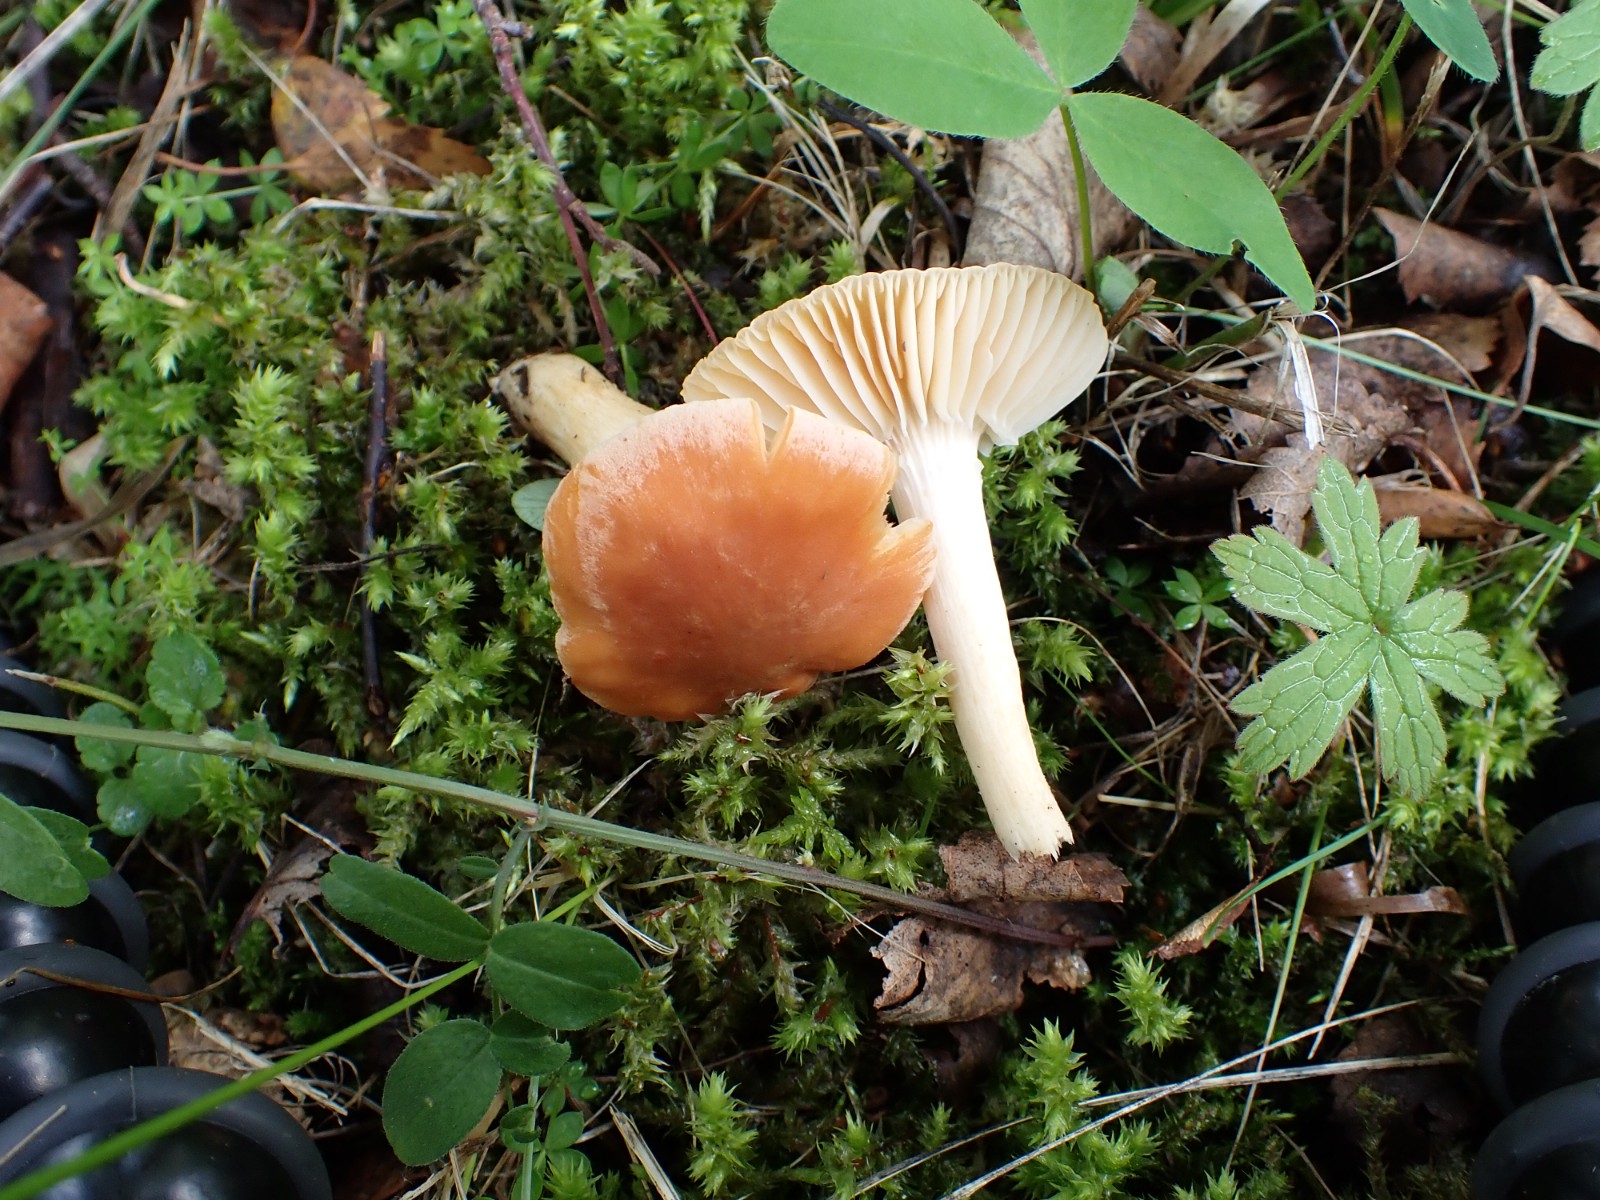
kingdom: Fungi
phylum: Basidiomycota
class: Agaricomycetes
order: Agaricales
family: Hygrophoraceae
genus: Cuphophyllus
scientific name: Cuphophyllus pratensis
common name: eng-vokshat
